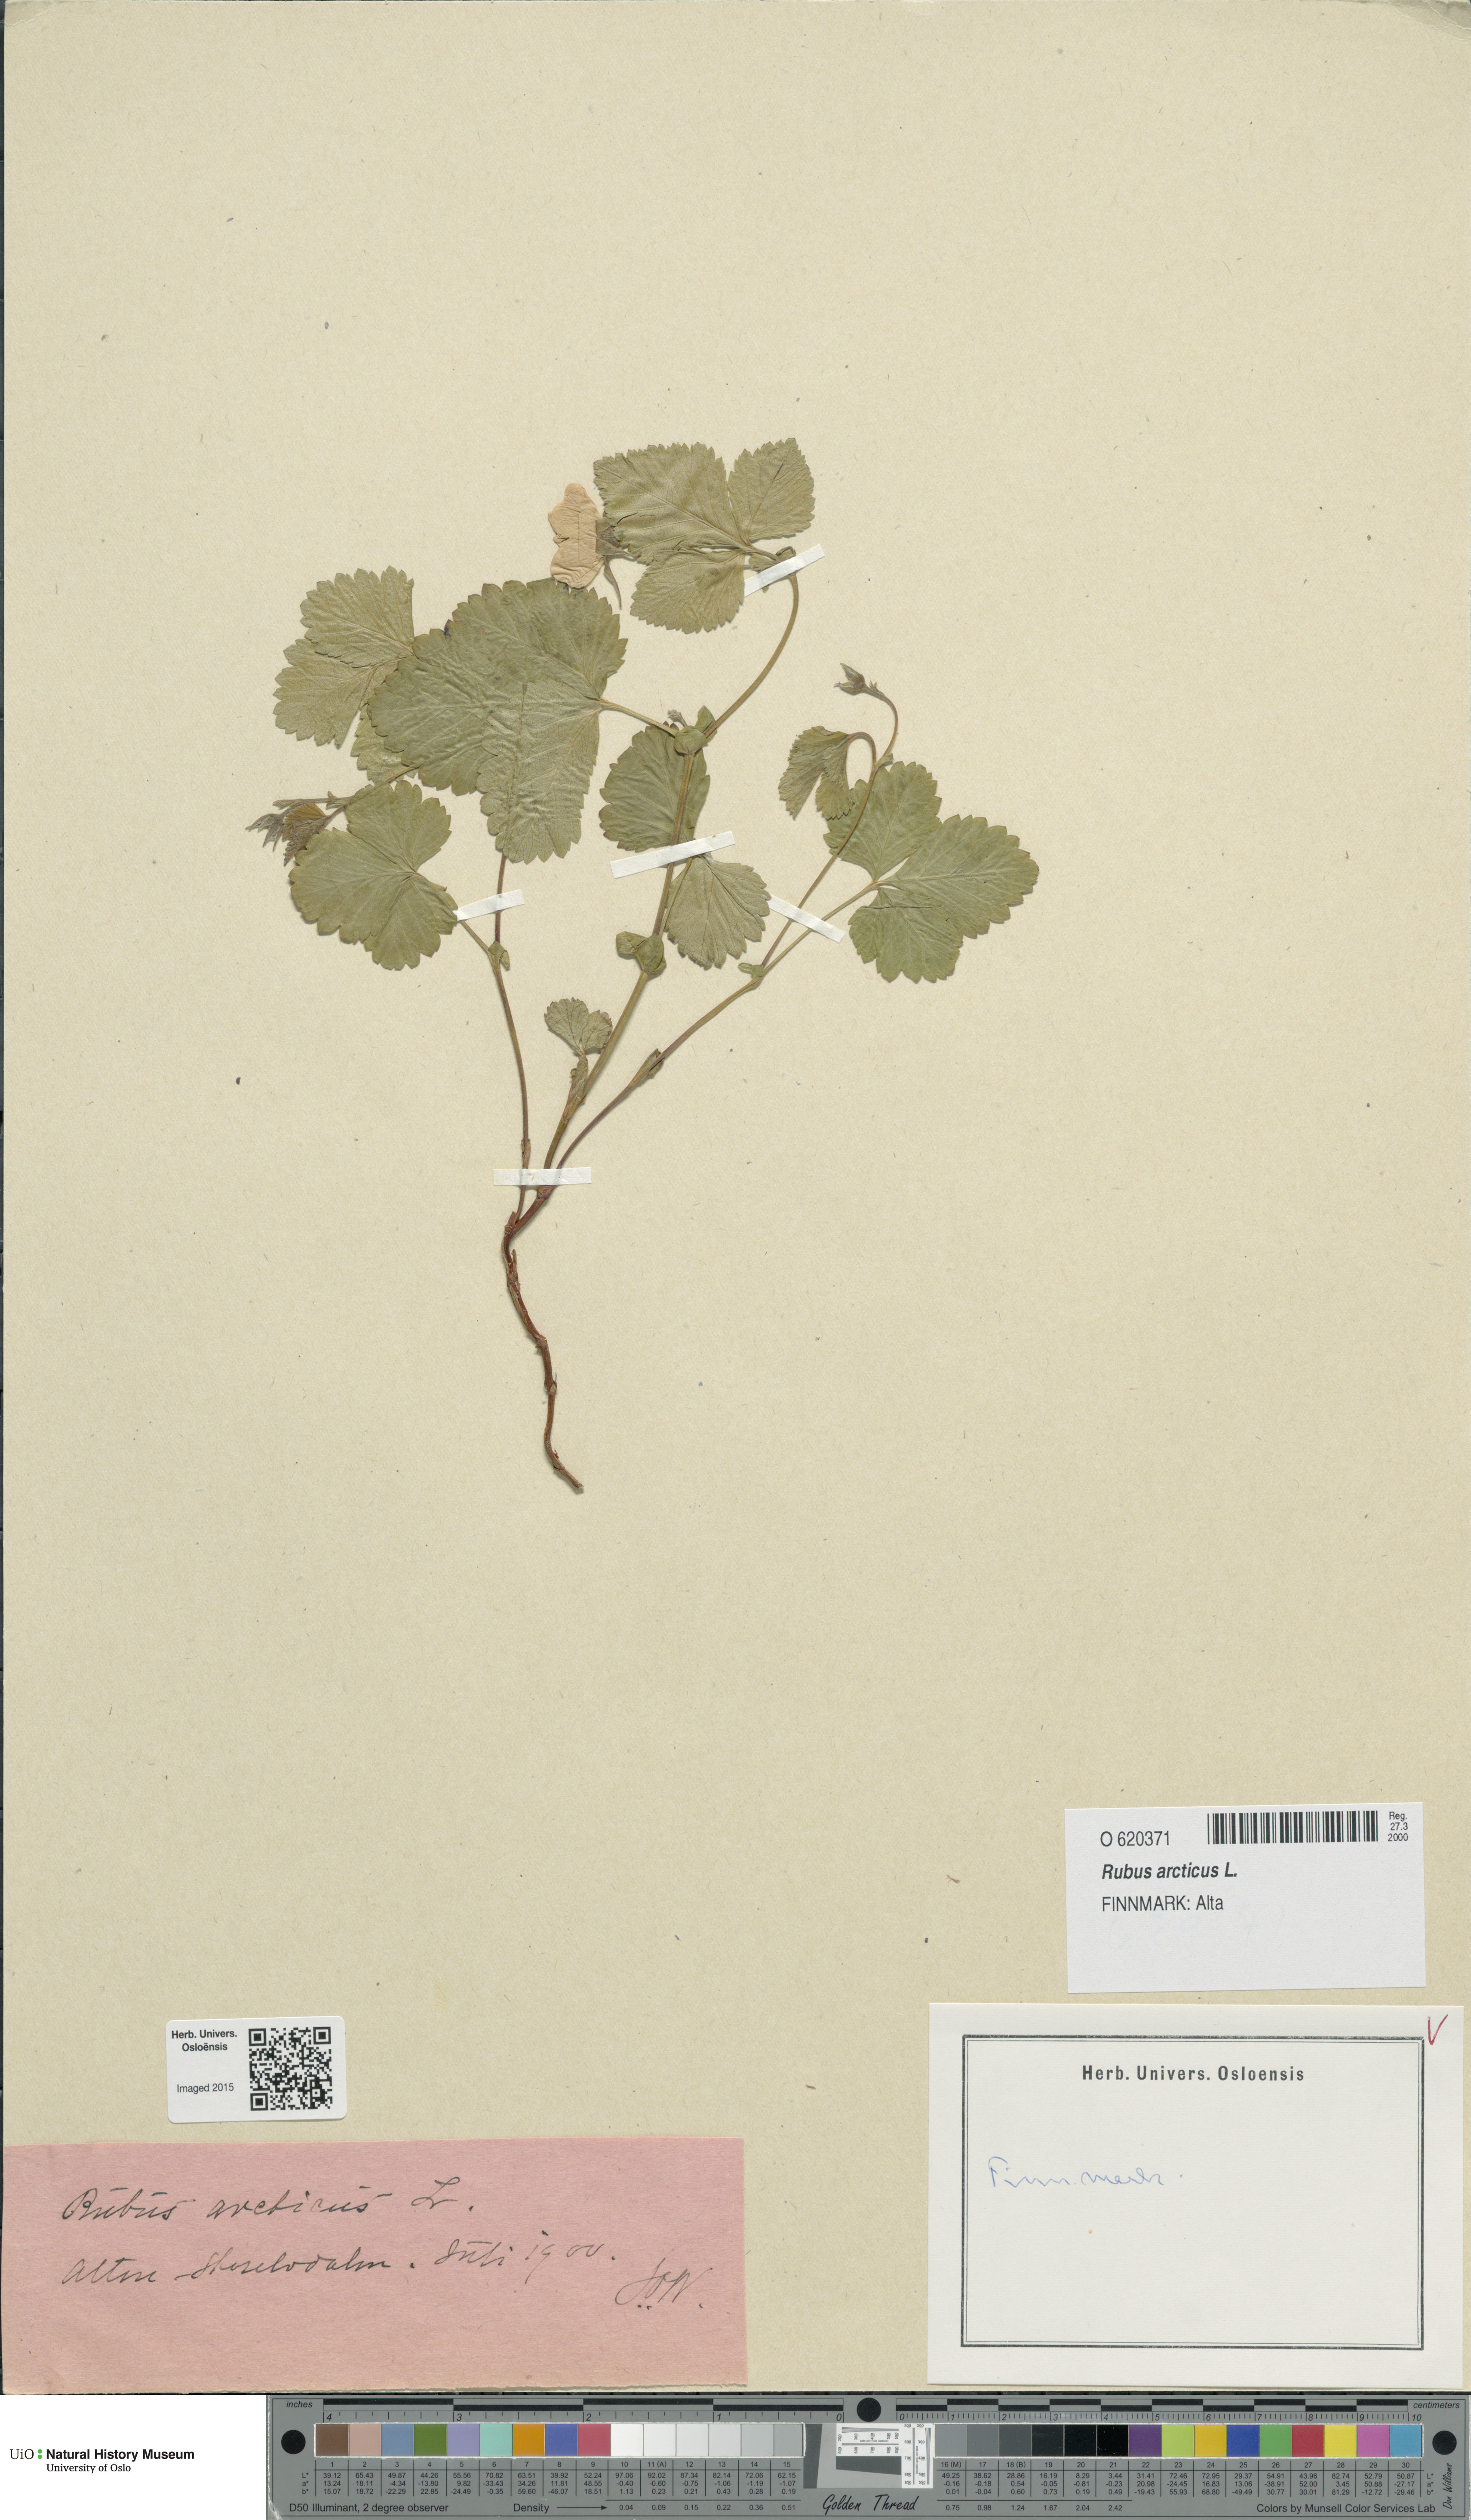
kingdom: Plantae
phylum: Tracheophyta
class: Magnoliopsida
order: Rosales
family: Rosaceae
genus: Rubus
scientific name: Rubus arcticus
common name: Arctic bramble
